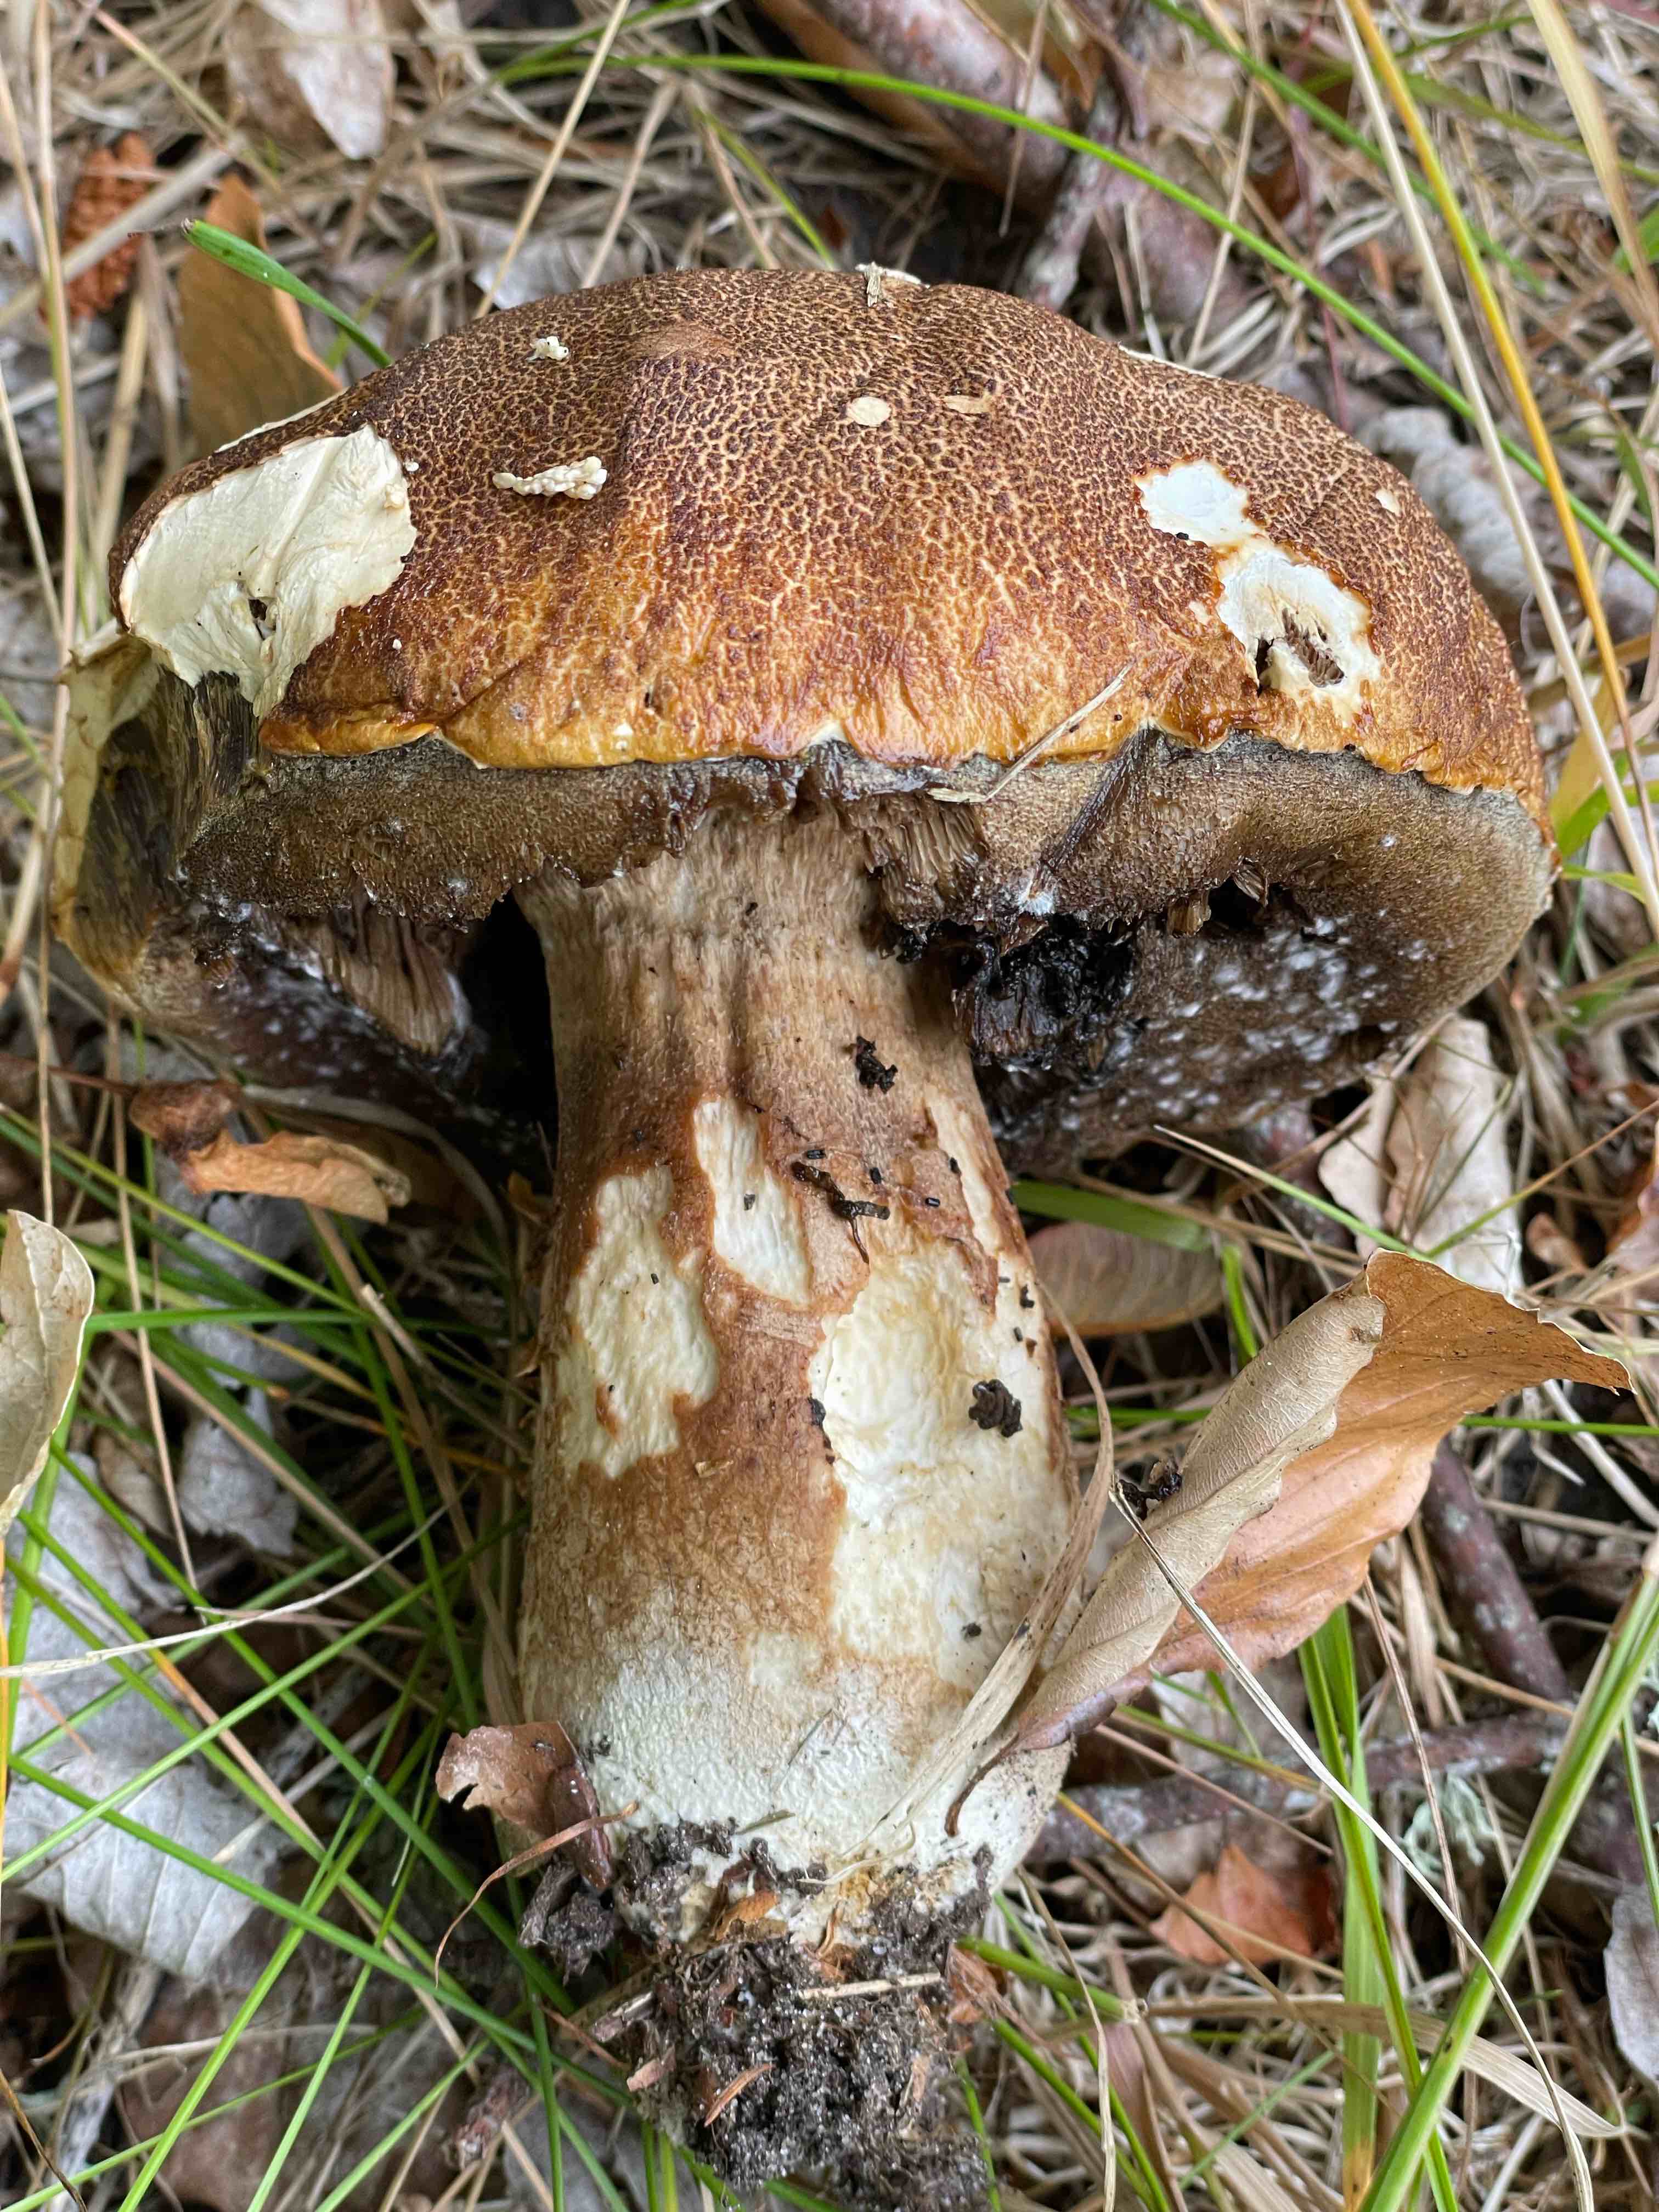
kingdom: Fungi
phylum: Basidiomycota
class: Agaricomycetes
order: Boletales
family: Boletaceae
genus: Boletus
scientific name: Boletus pinophilus
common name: rødbrun rørhat
